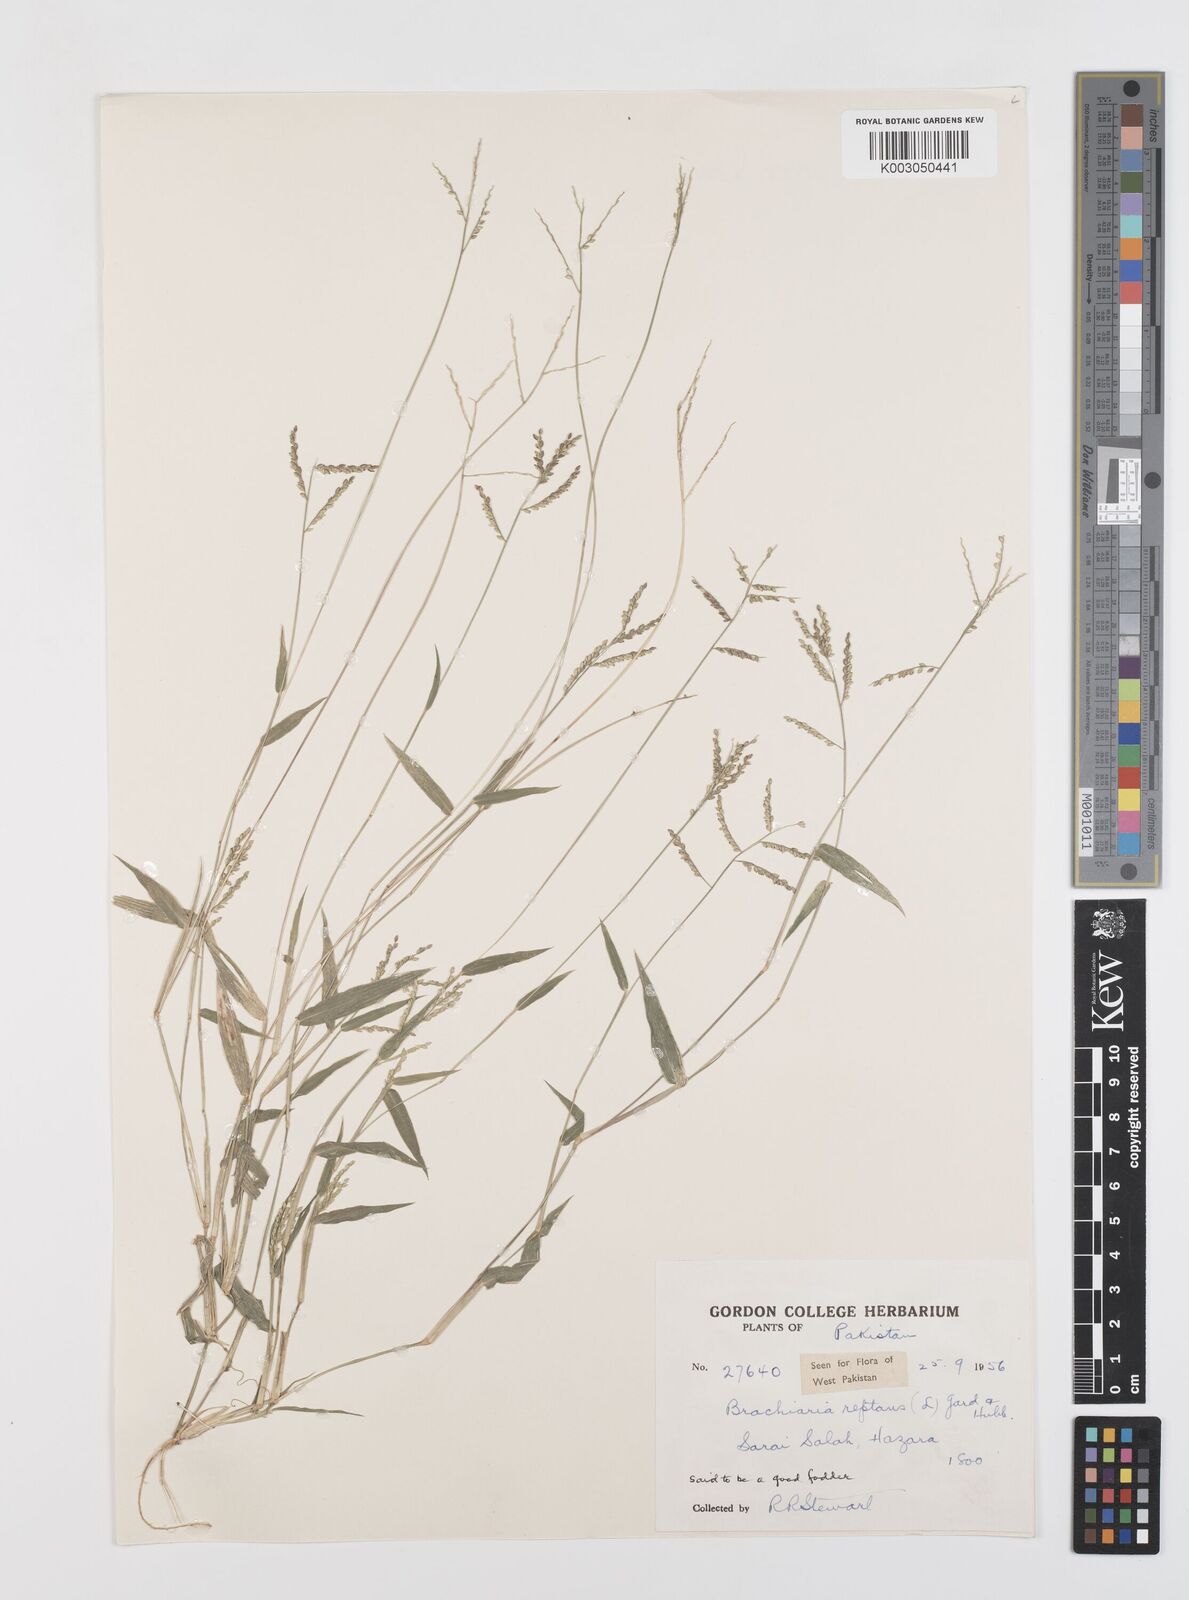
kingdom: Plantae
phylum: Tracheophyta
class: Liliopsida
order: Poales
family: Poaceae
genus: Urochloa
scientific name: Urochloa reptans
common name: Sprawling signalgrass
